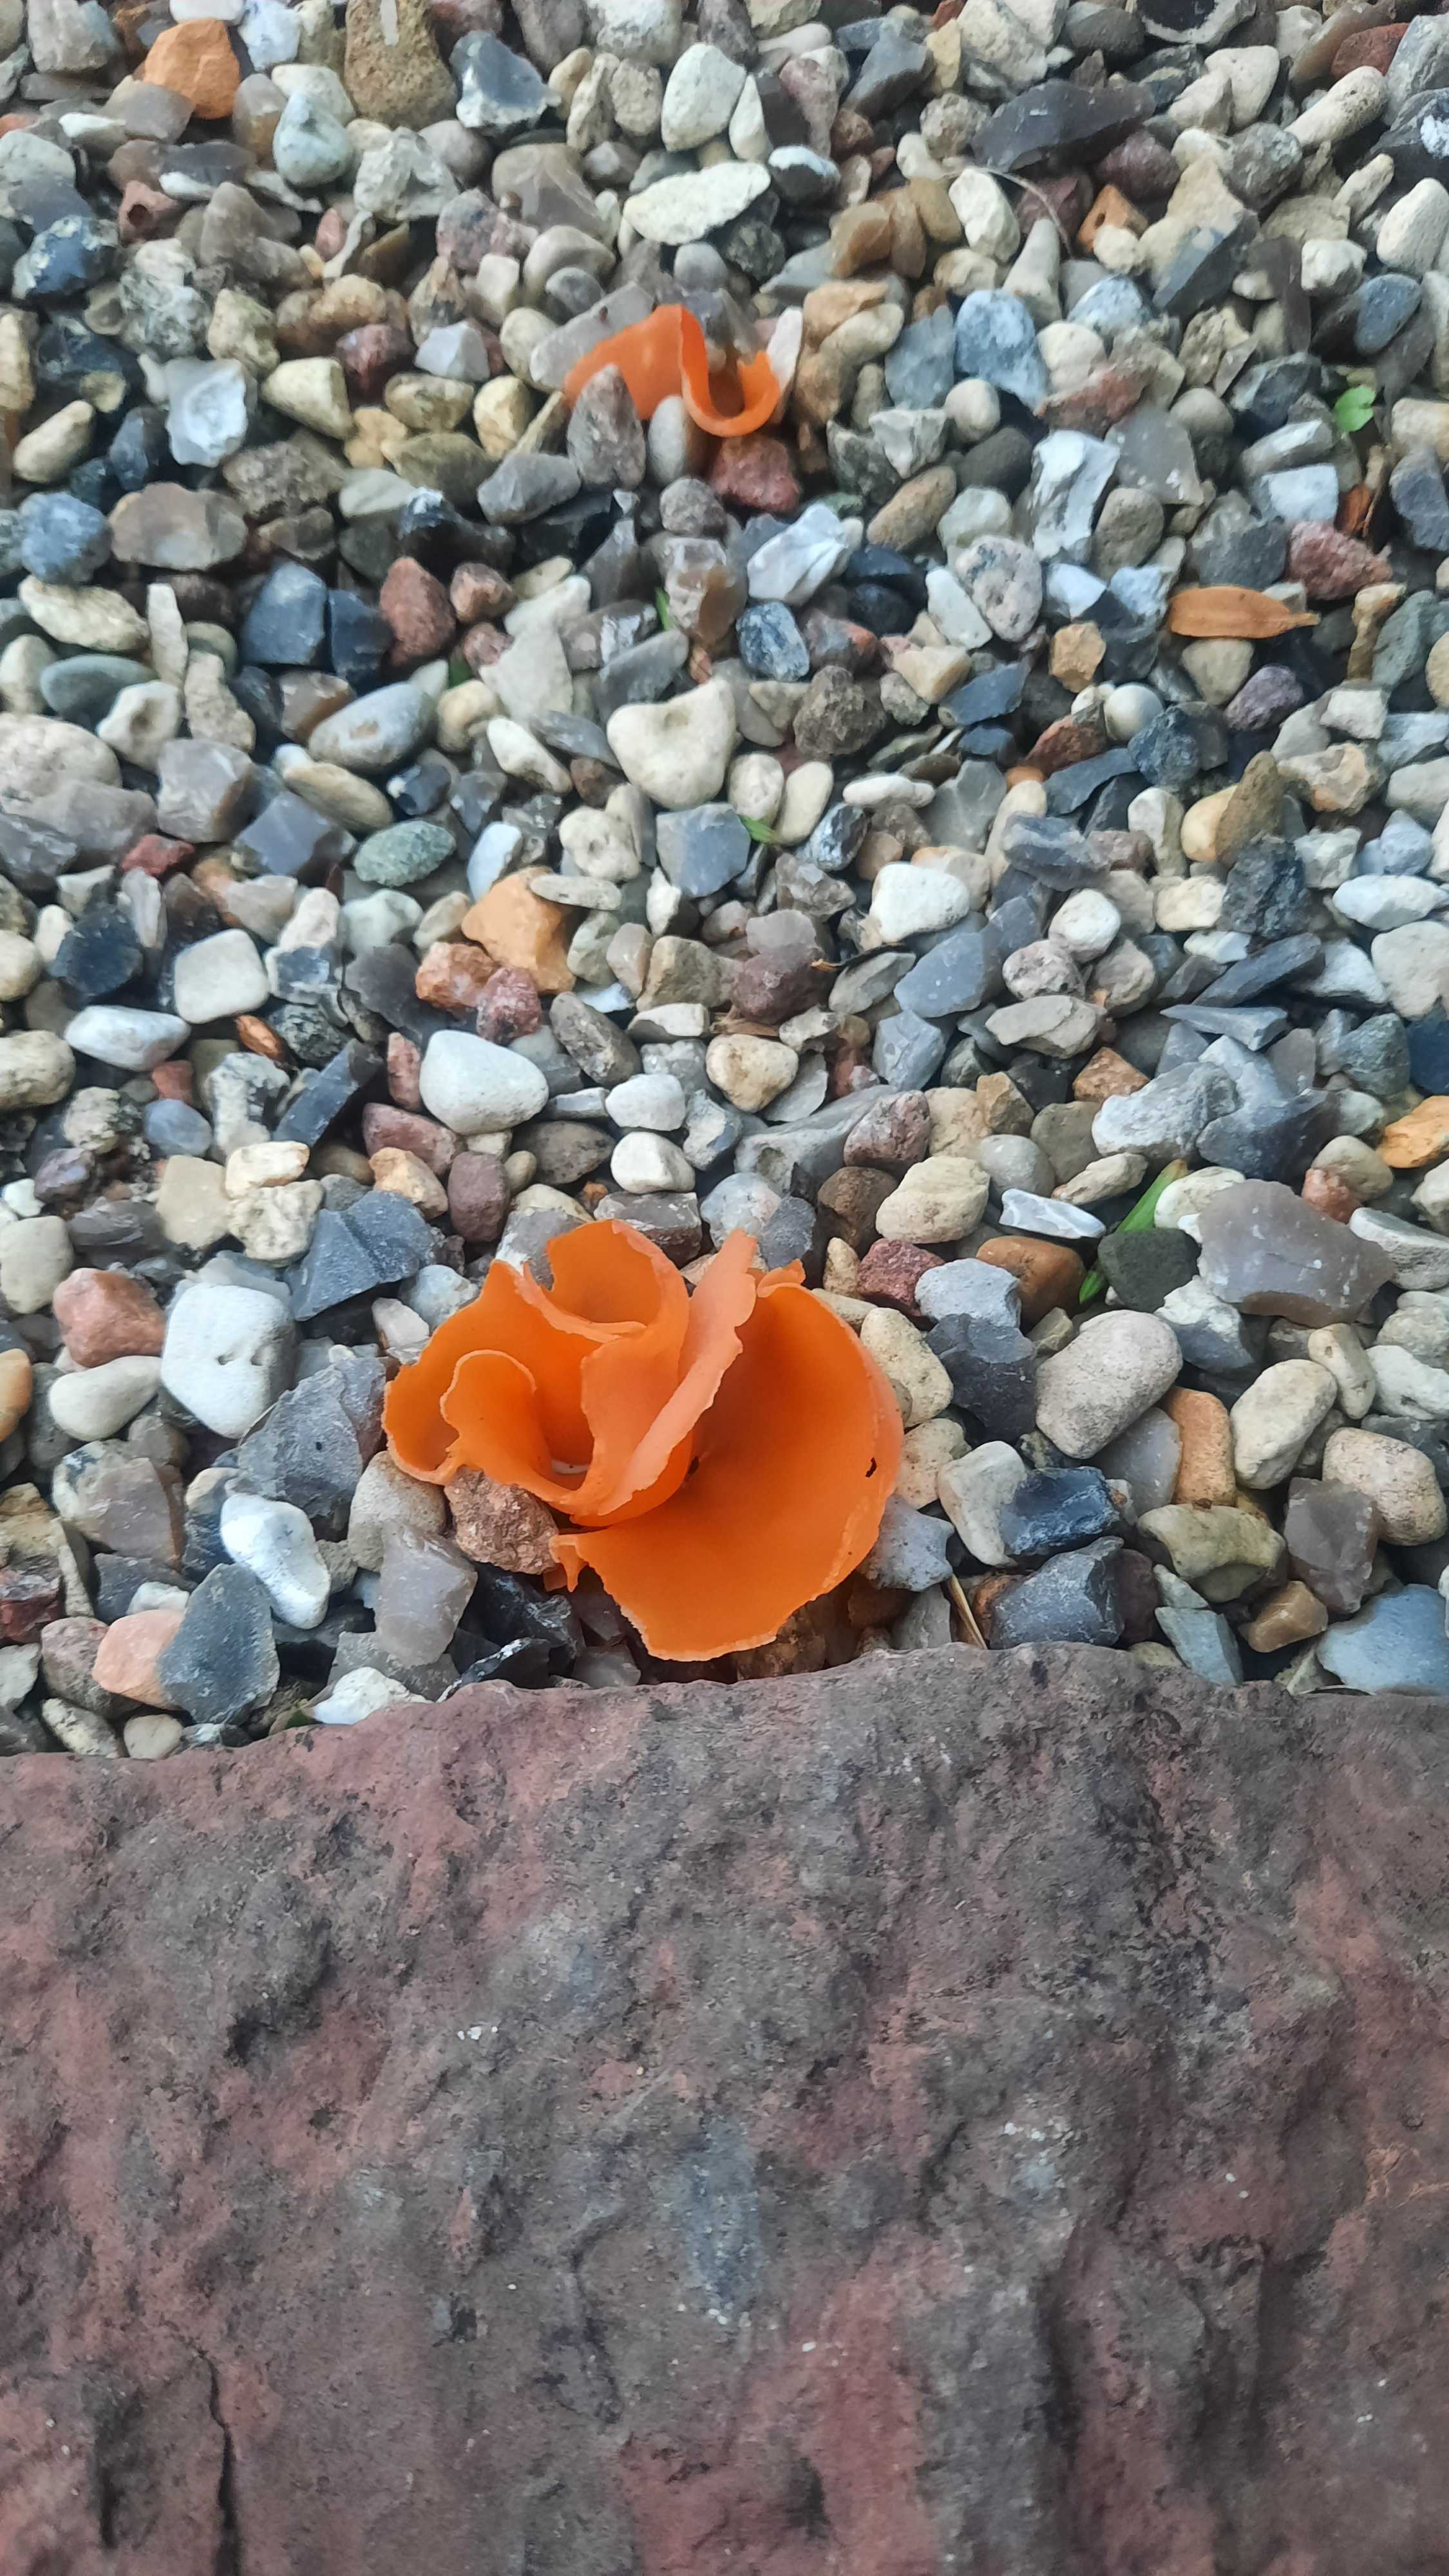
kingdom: Fungi
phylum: Ascomycota
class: Pezizomycetes
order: Pezizales
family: Pyronemataceae
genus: Aleuria
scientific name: Aleuria aurantia
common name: almindelig orangebæger
